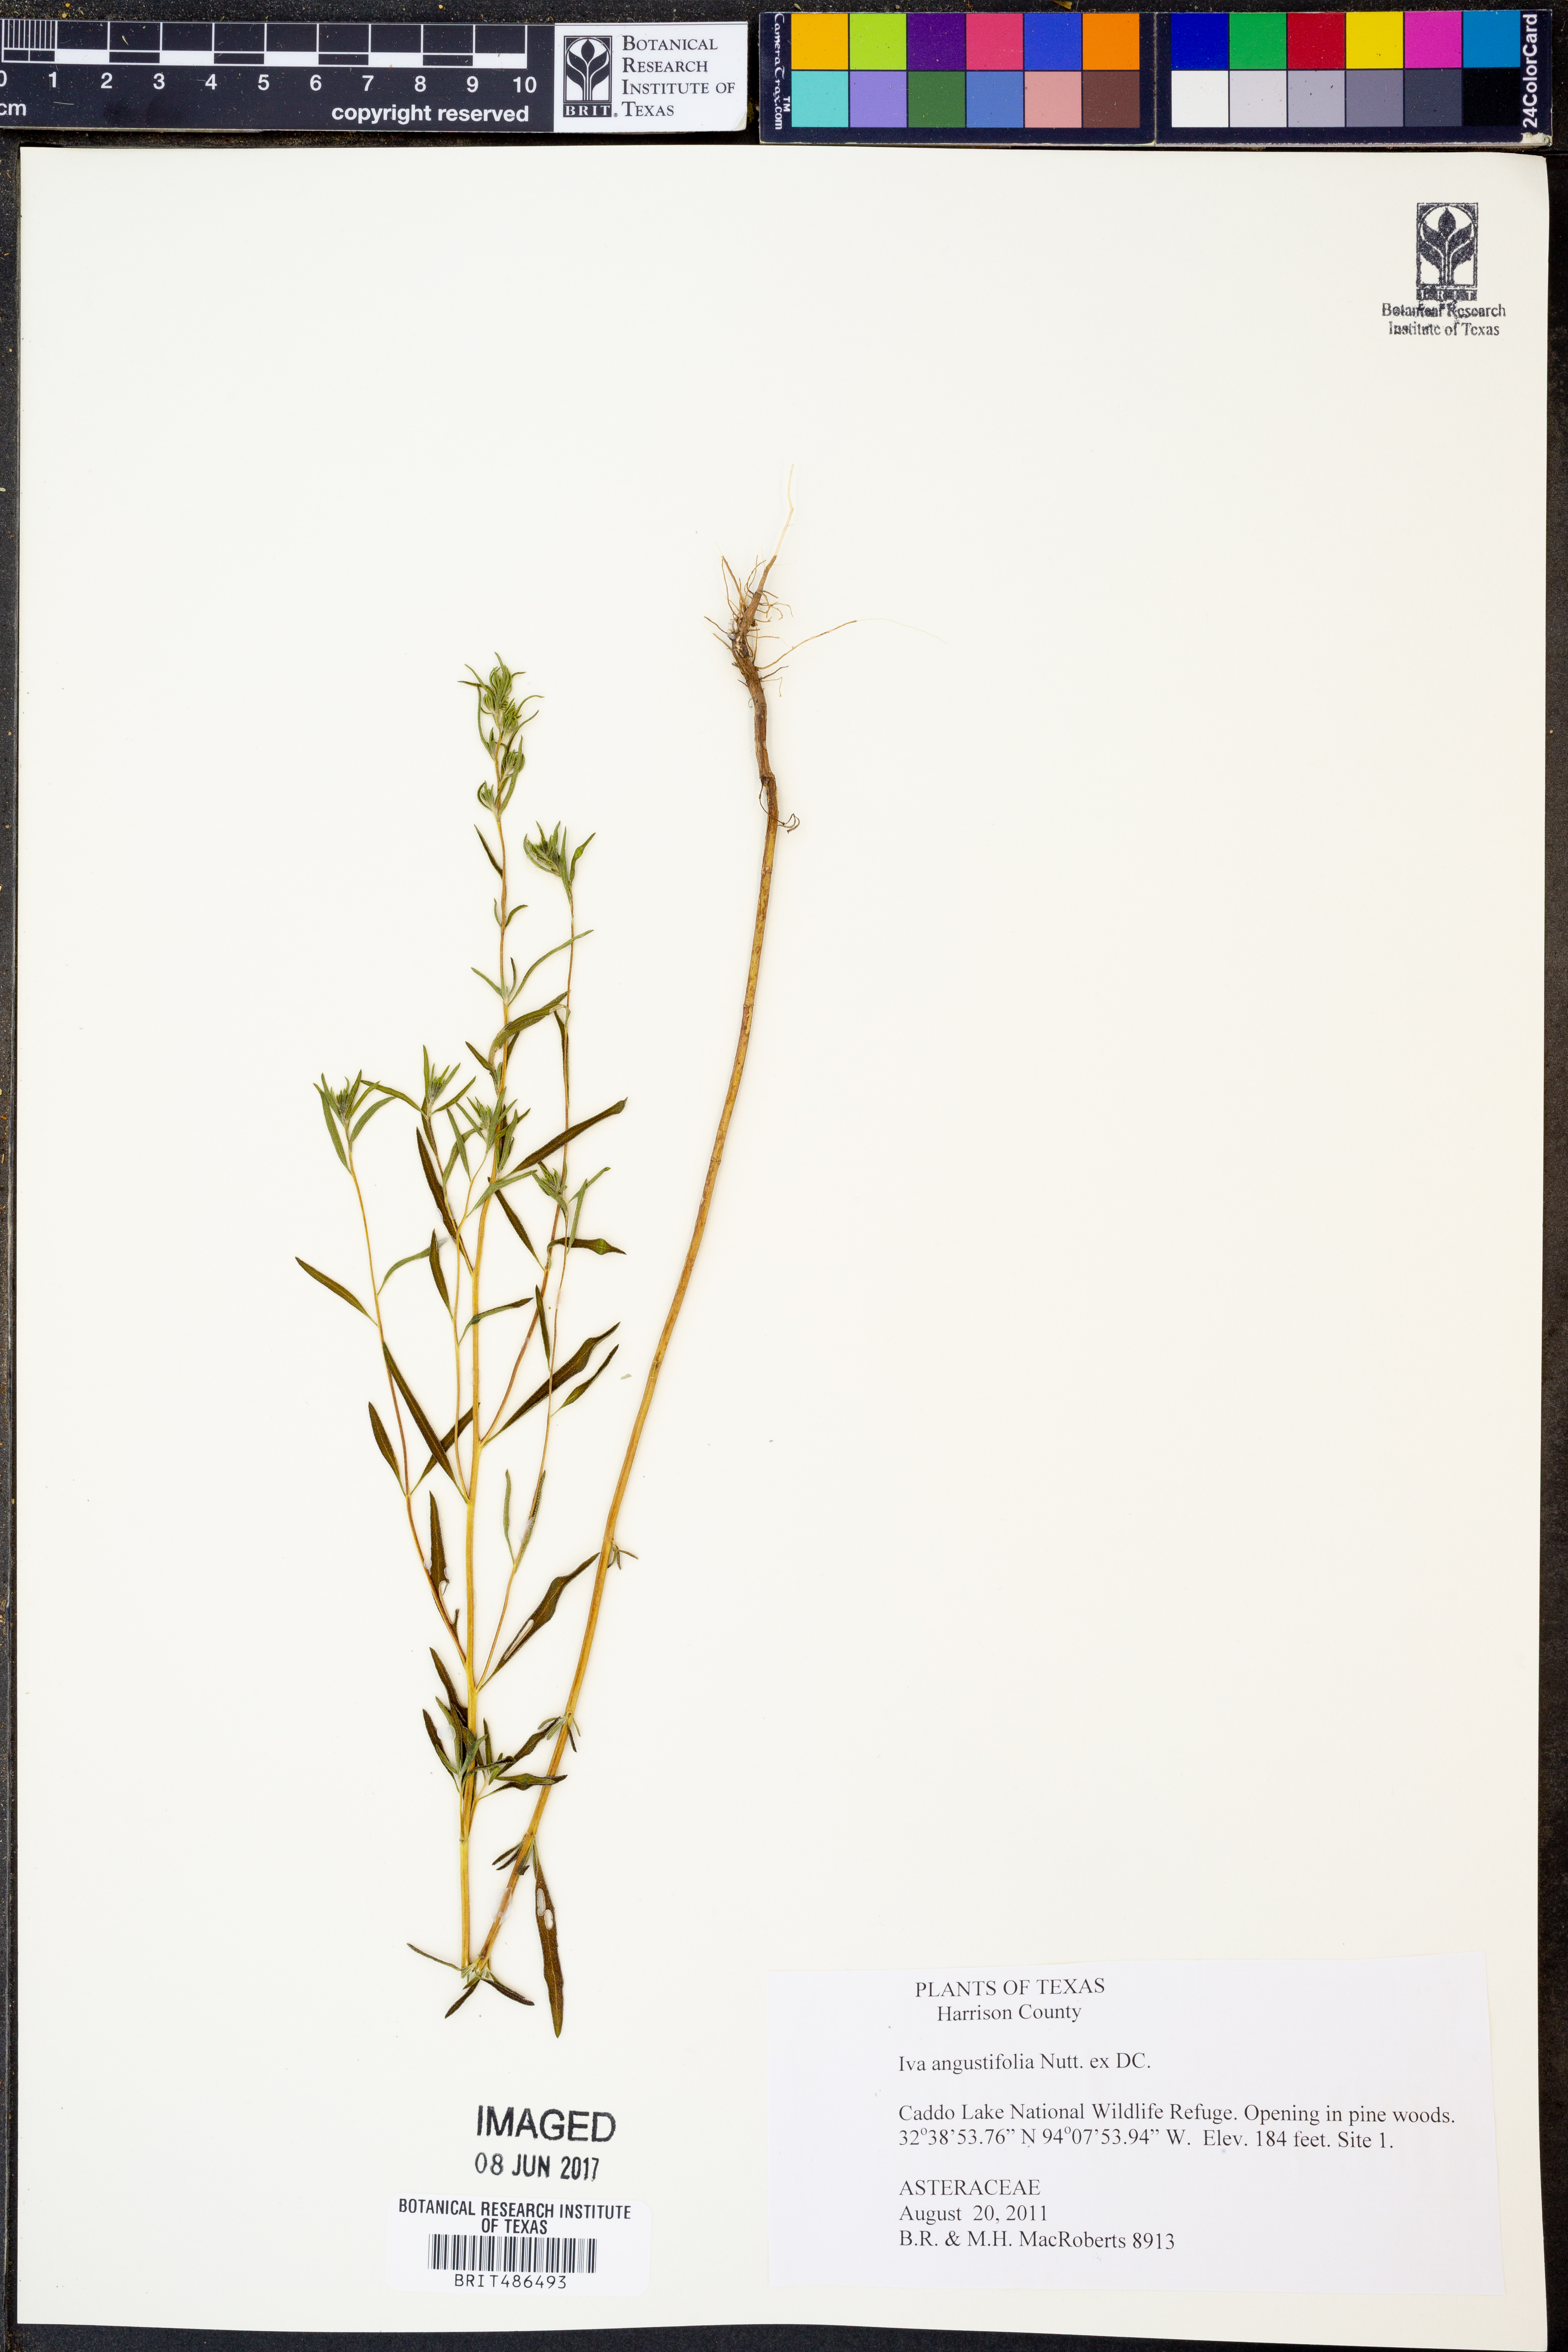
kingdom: Plantae
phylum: Tracheophyta
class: Magnoliopsida
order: Asterales
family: Asteraceae
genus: Iva
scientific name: Iva asperifolia
